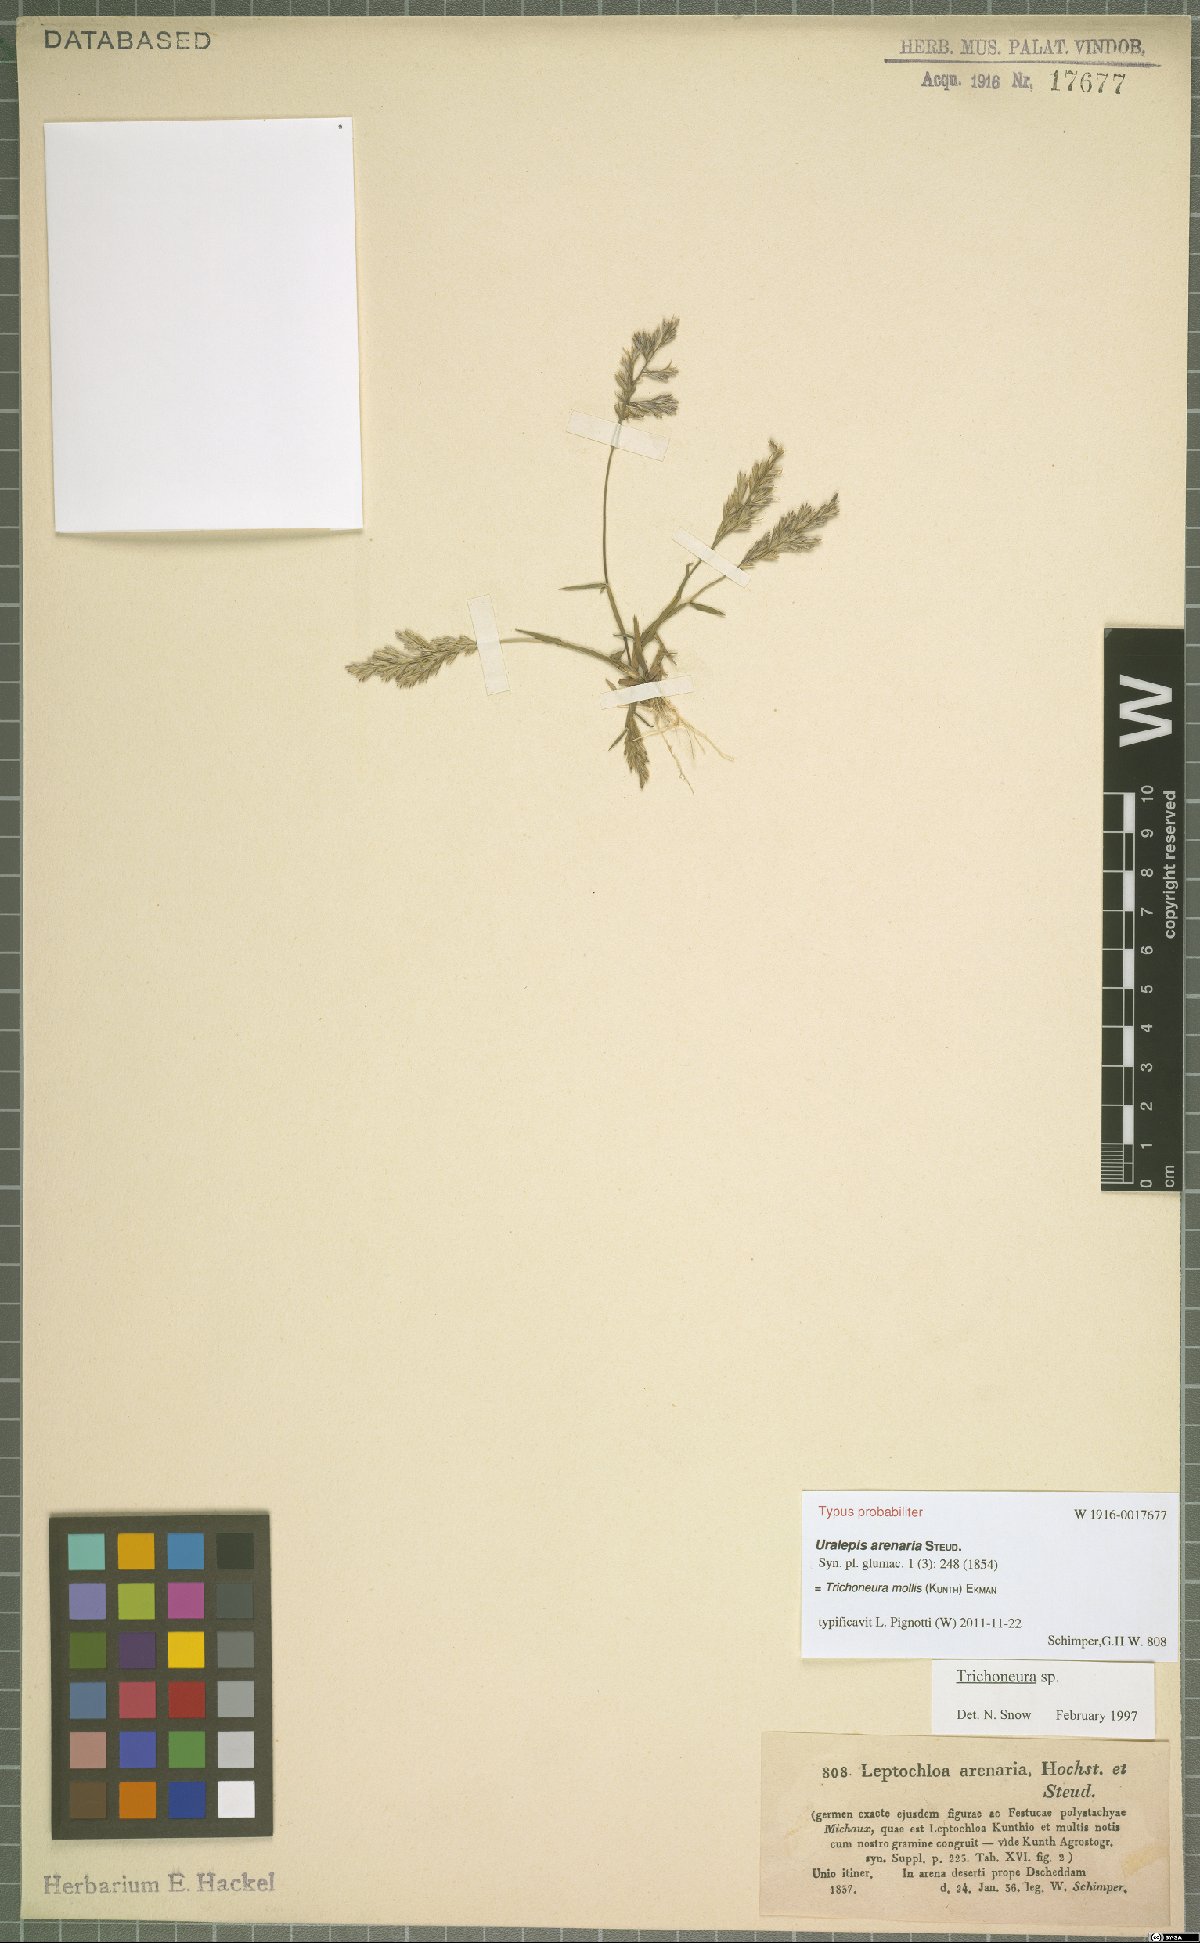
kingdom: Plantae
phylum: Tracheophyta
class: Liliopsida
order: Poales
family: Poaceae
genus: Trichoneura
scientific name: Trichoneura mollis
